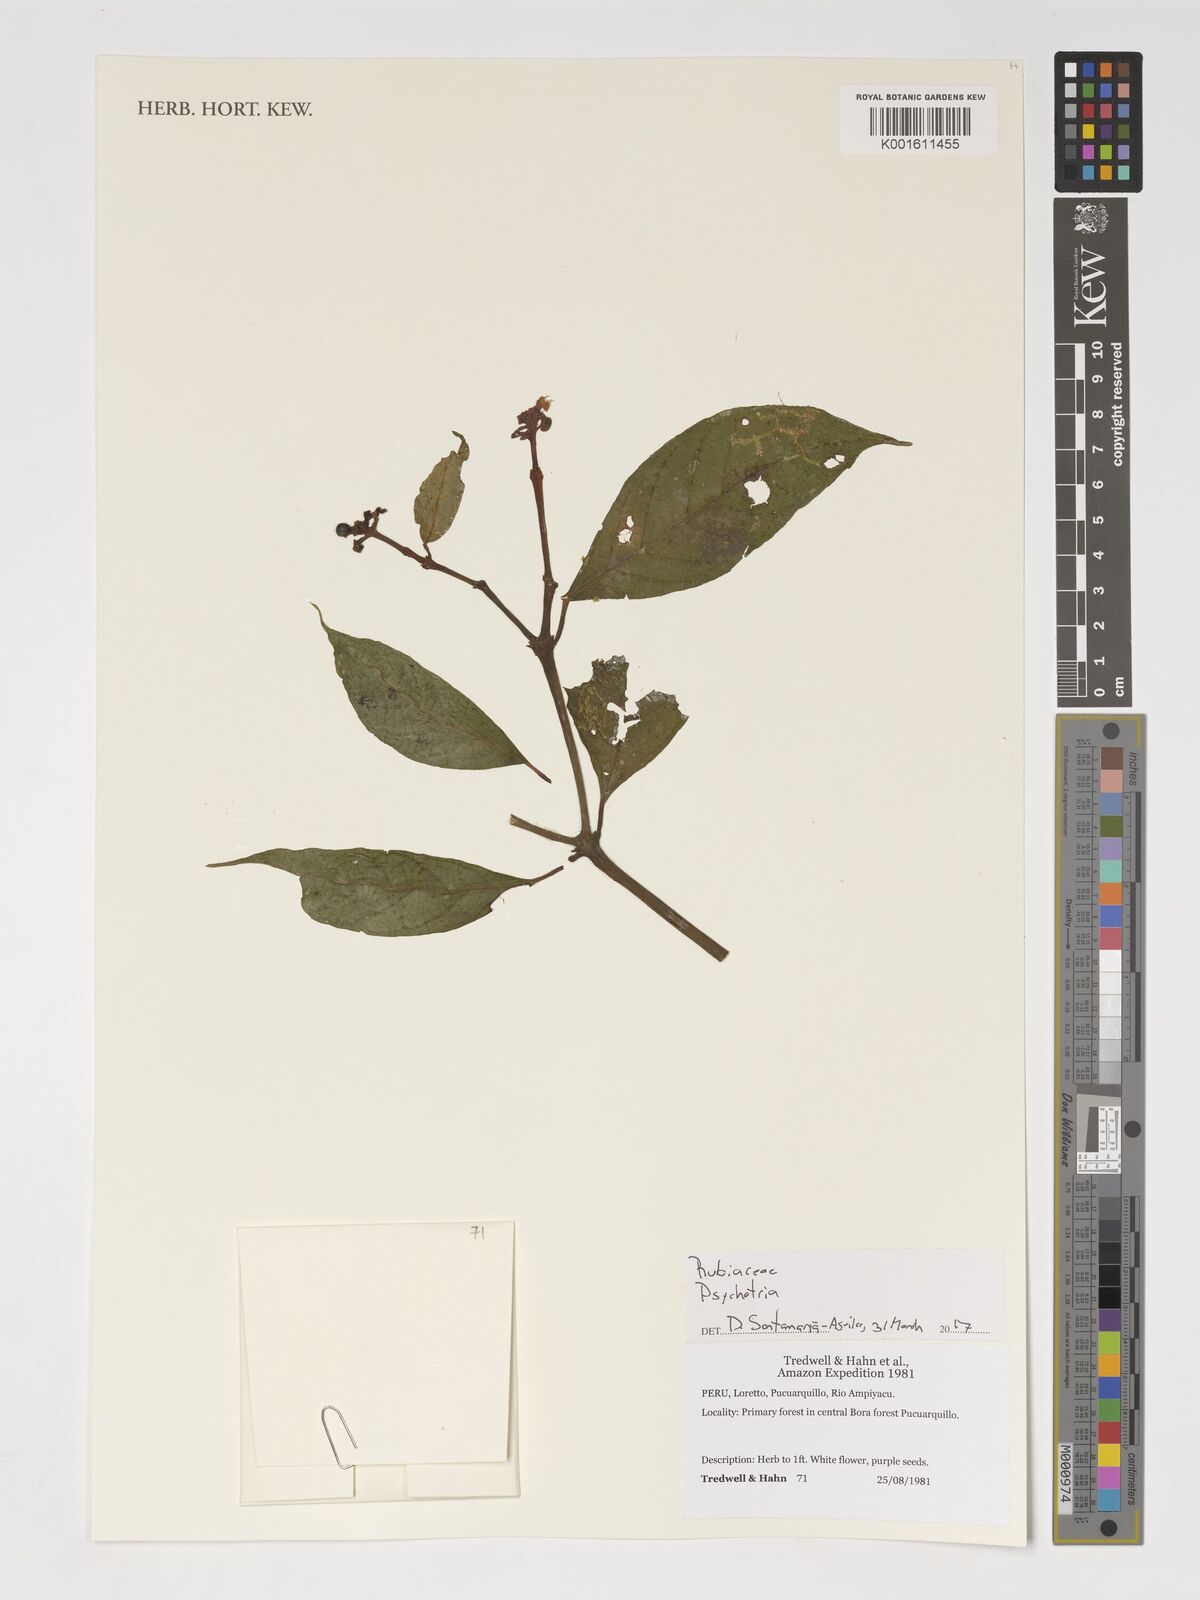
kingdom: Plantae
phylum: Tracheophyta
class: Magnoliopsida
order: Gentianales
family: Rubiaceae
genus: Psychotria
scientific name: Psychotria
